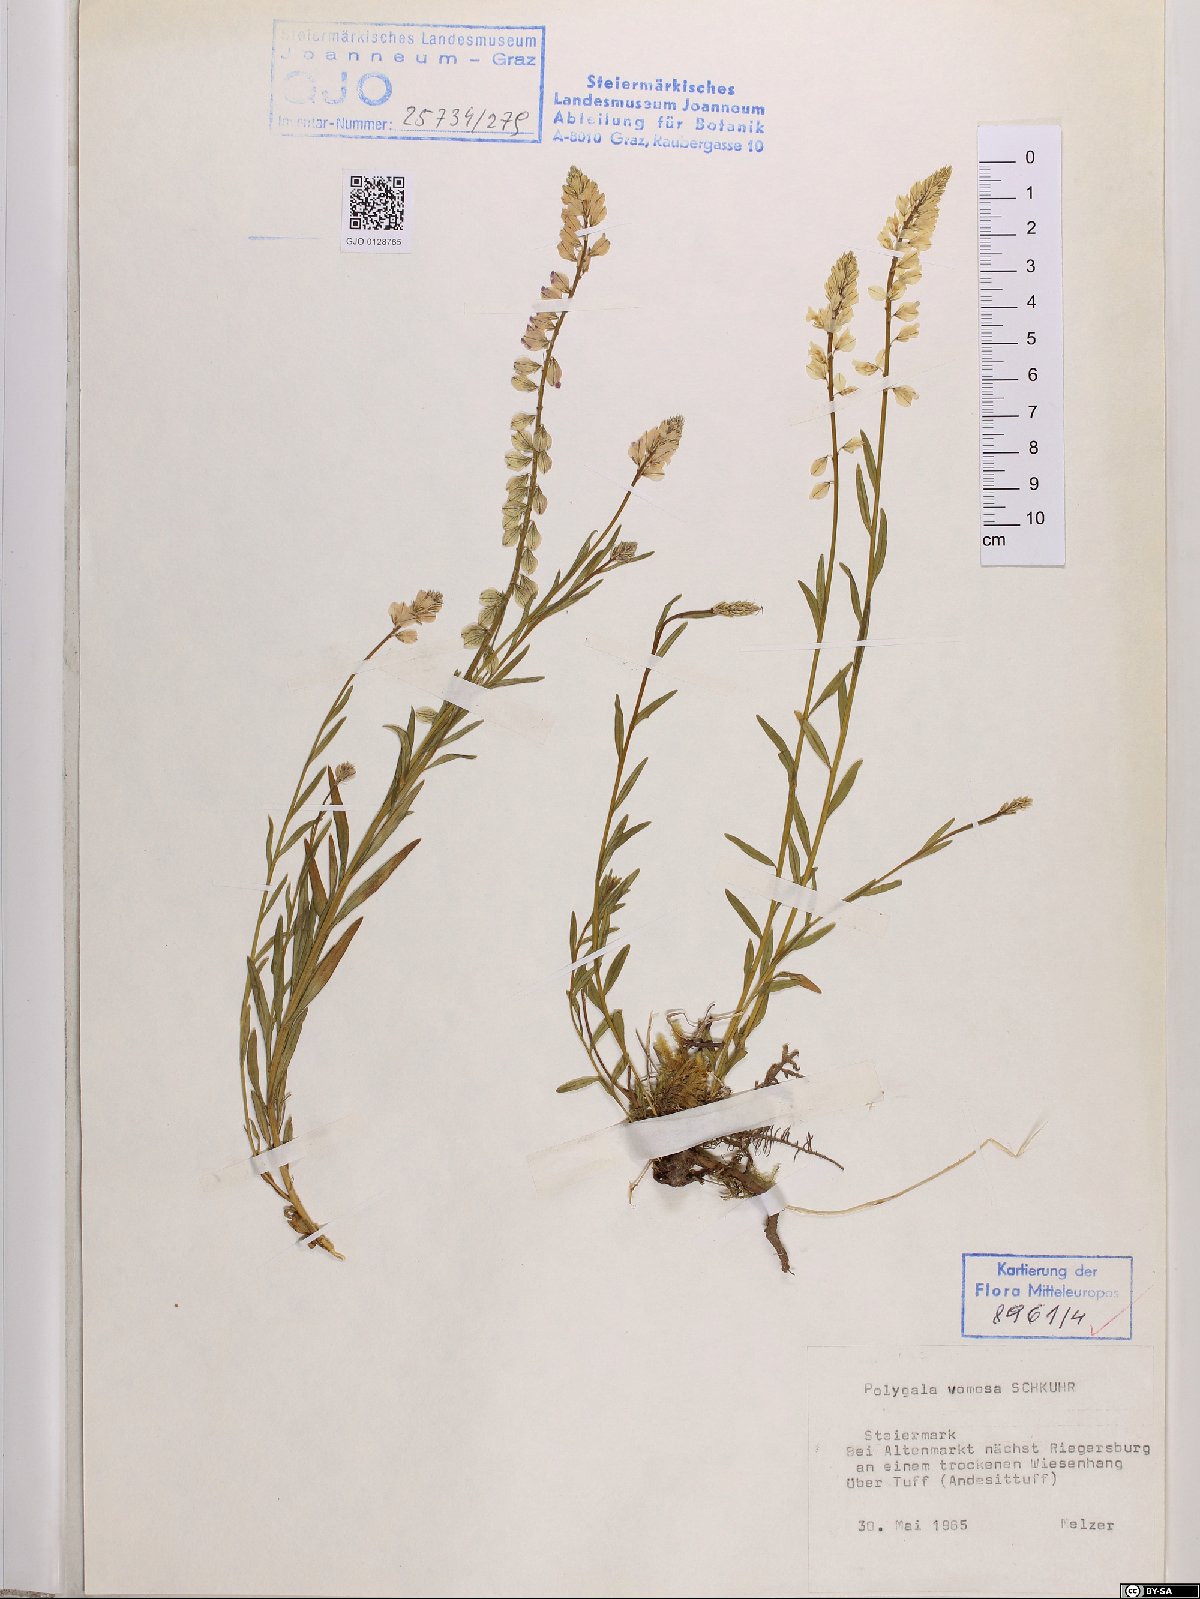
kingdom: Plantae
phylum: Tracheophyta
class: Magnoliopsida
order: Fabales
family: Polygalaceae
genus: Polygala
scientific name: Polygala comosa
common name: Tufted milkwort
